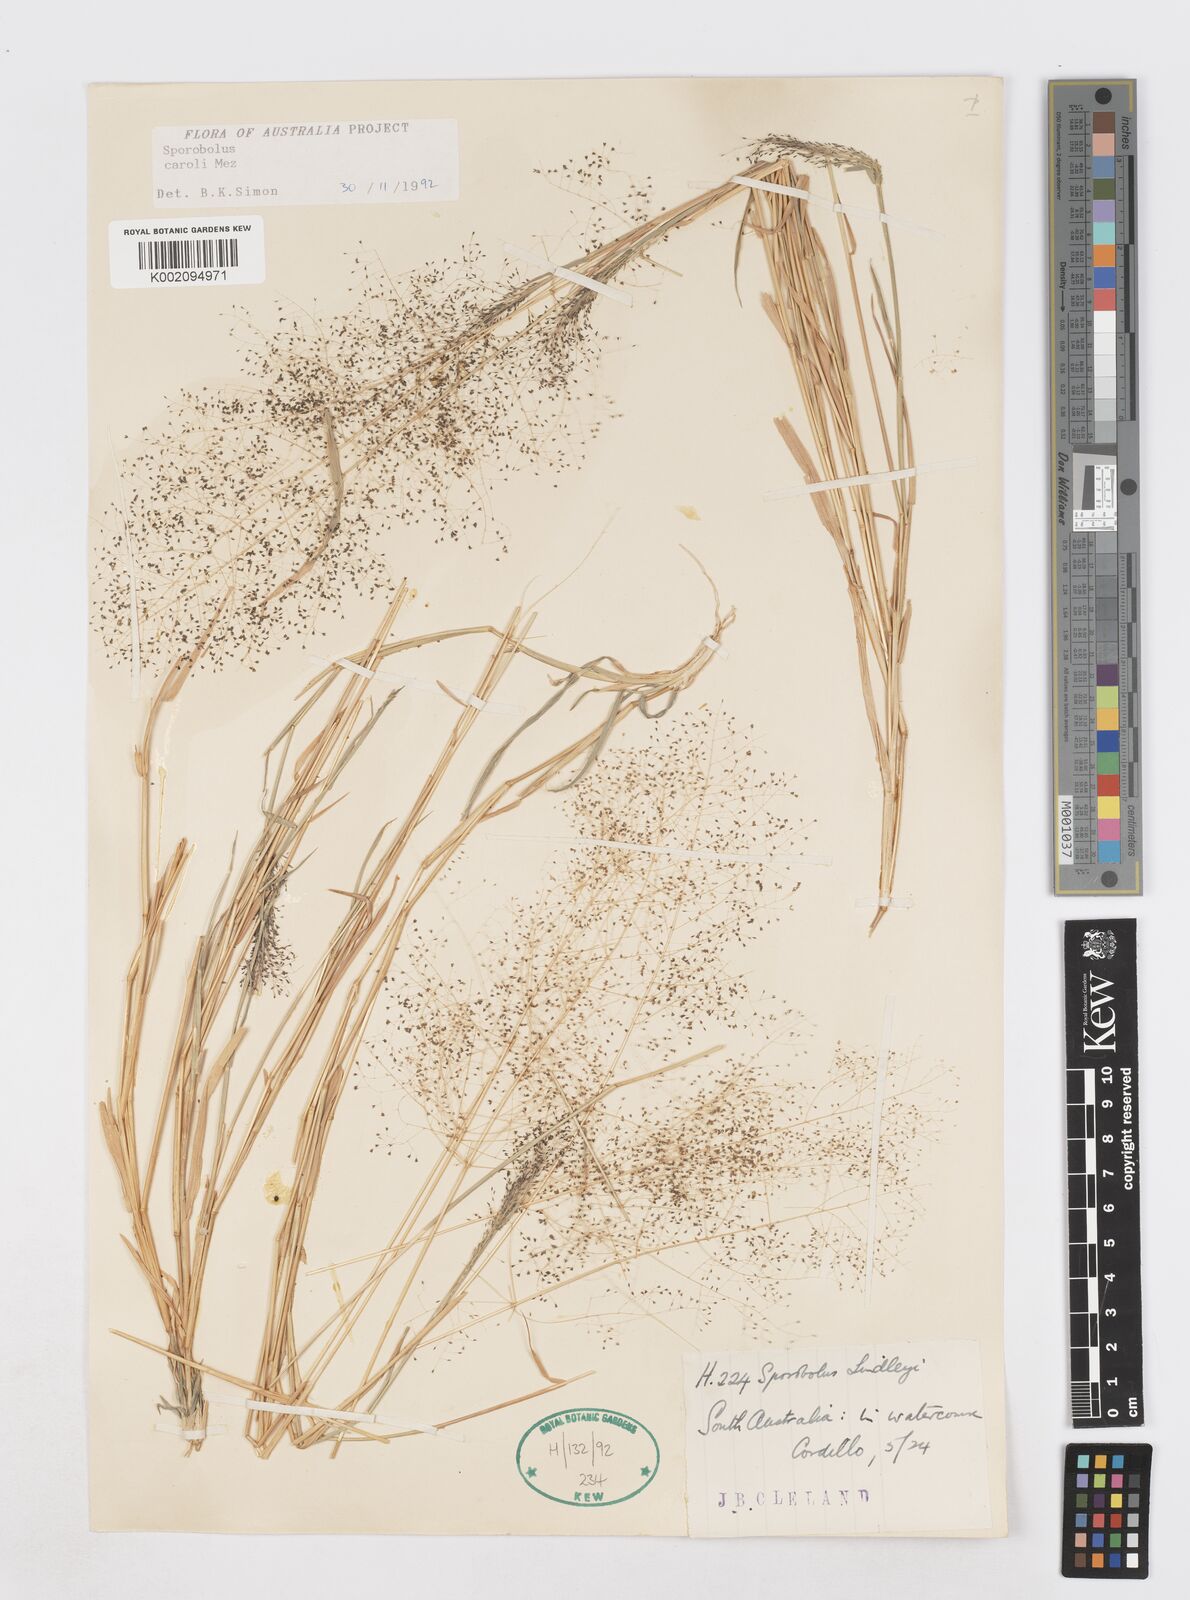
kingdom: Plantae
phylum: Tracheophyta
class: Liliopsida
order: Poales
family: Poaceae
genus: Sporobolus
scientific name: Sporobolus caroli
